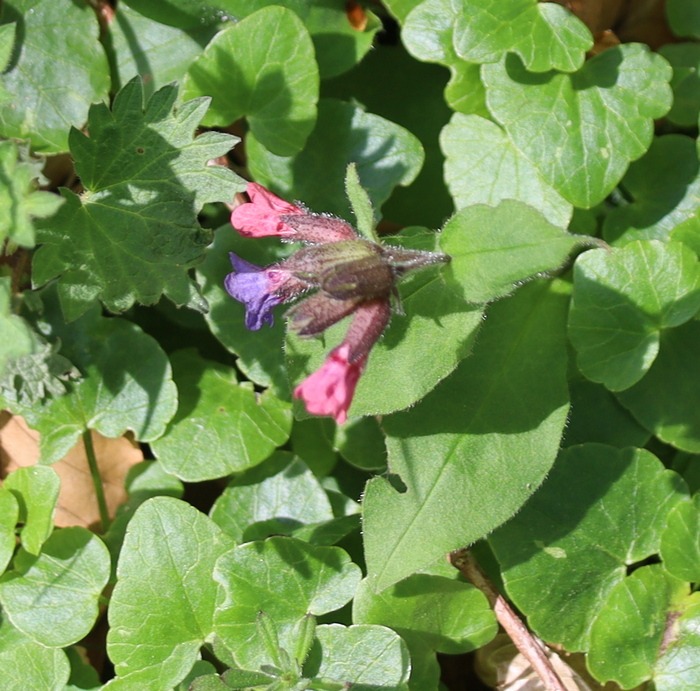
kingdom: Plantae
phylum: Tracheophyta
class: Magnoliopsida
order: Boraginales
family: Boraginaceae
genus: Pulmonaria
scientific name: Pulmonaria obscura
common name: Almindelig lungeurt
